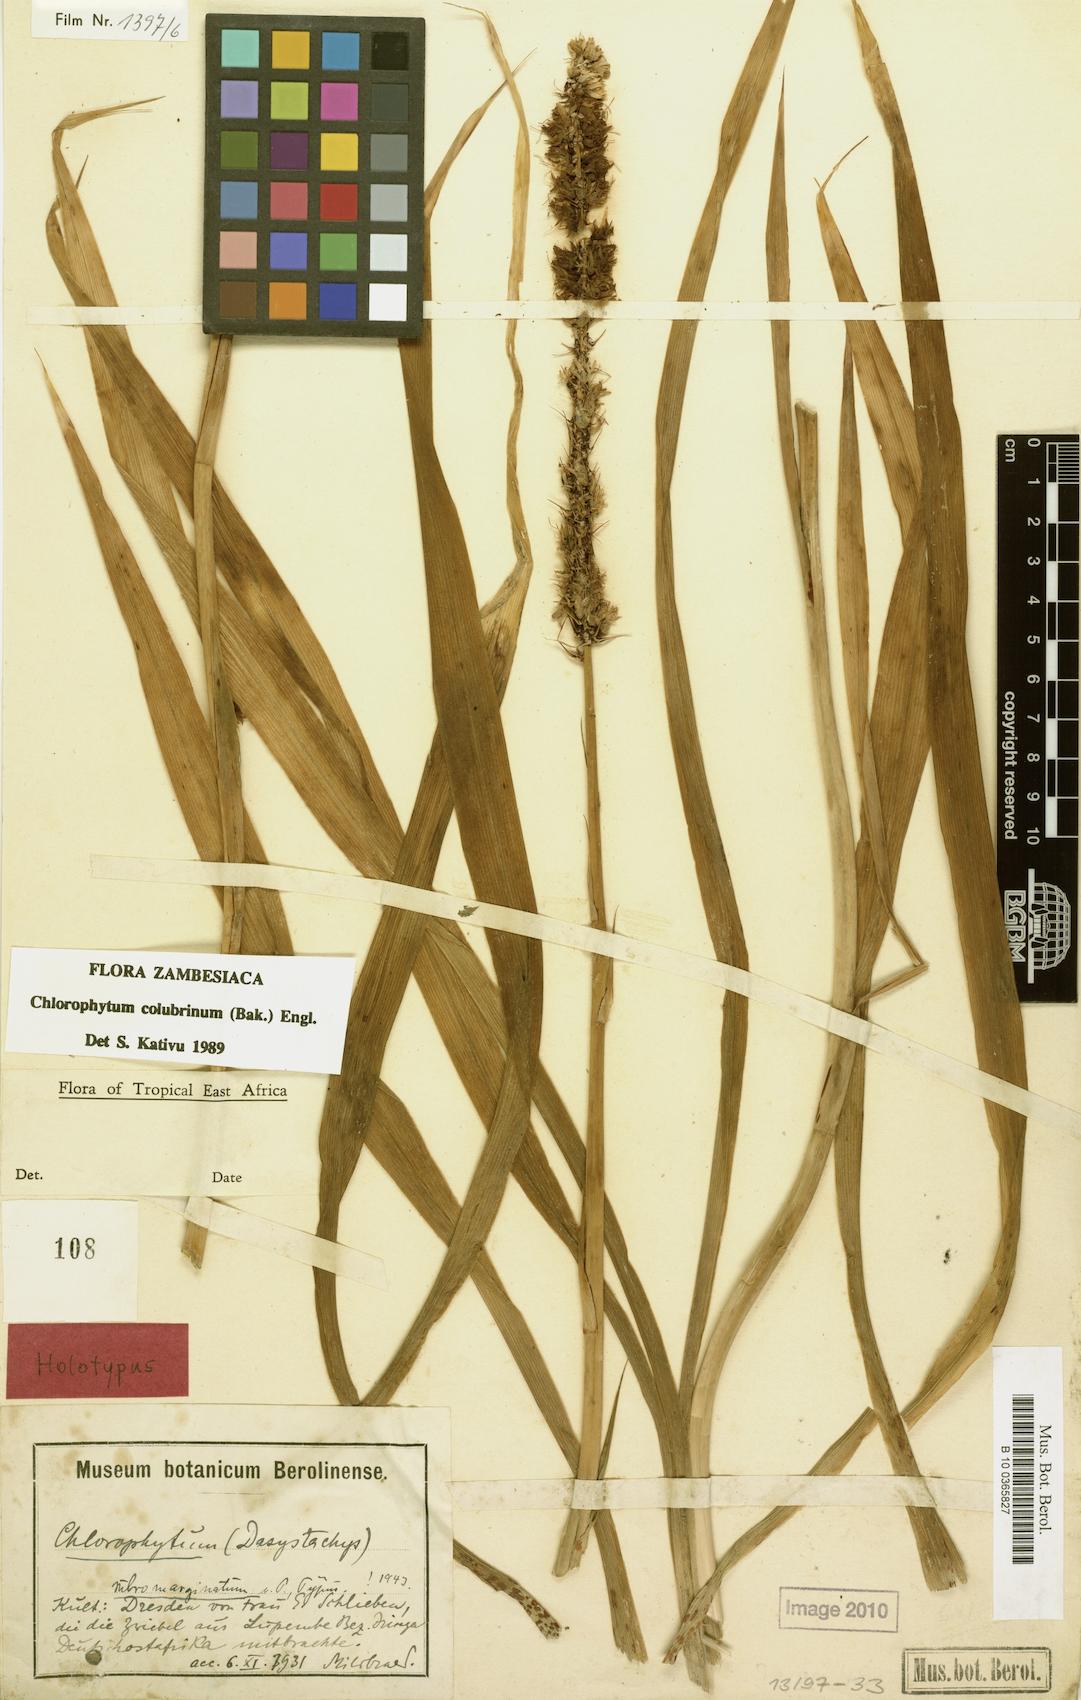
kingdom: Plantae
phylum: Tracheophyta
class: Liliopsida
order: Asparagales
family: Asparagaceae
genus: Chlorophytum
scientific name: Chlorophytum colubrinum
